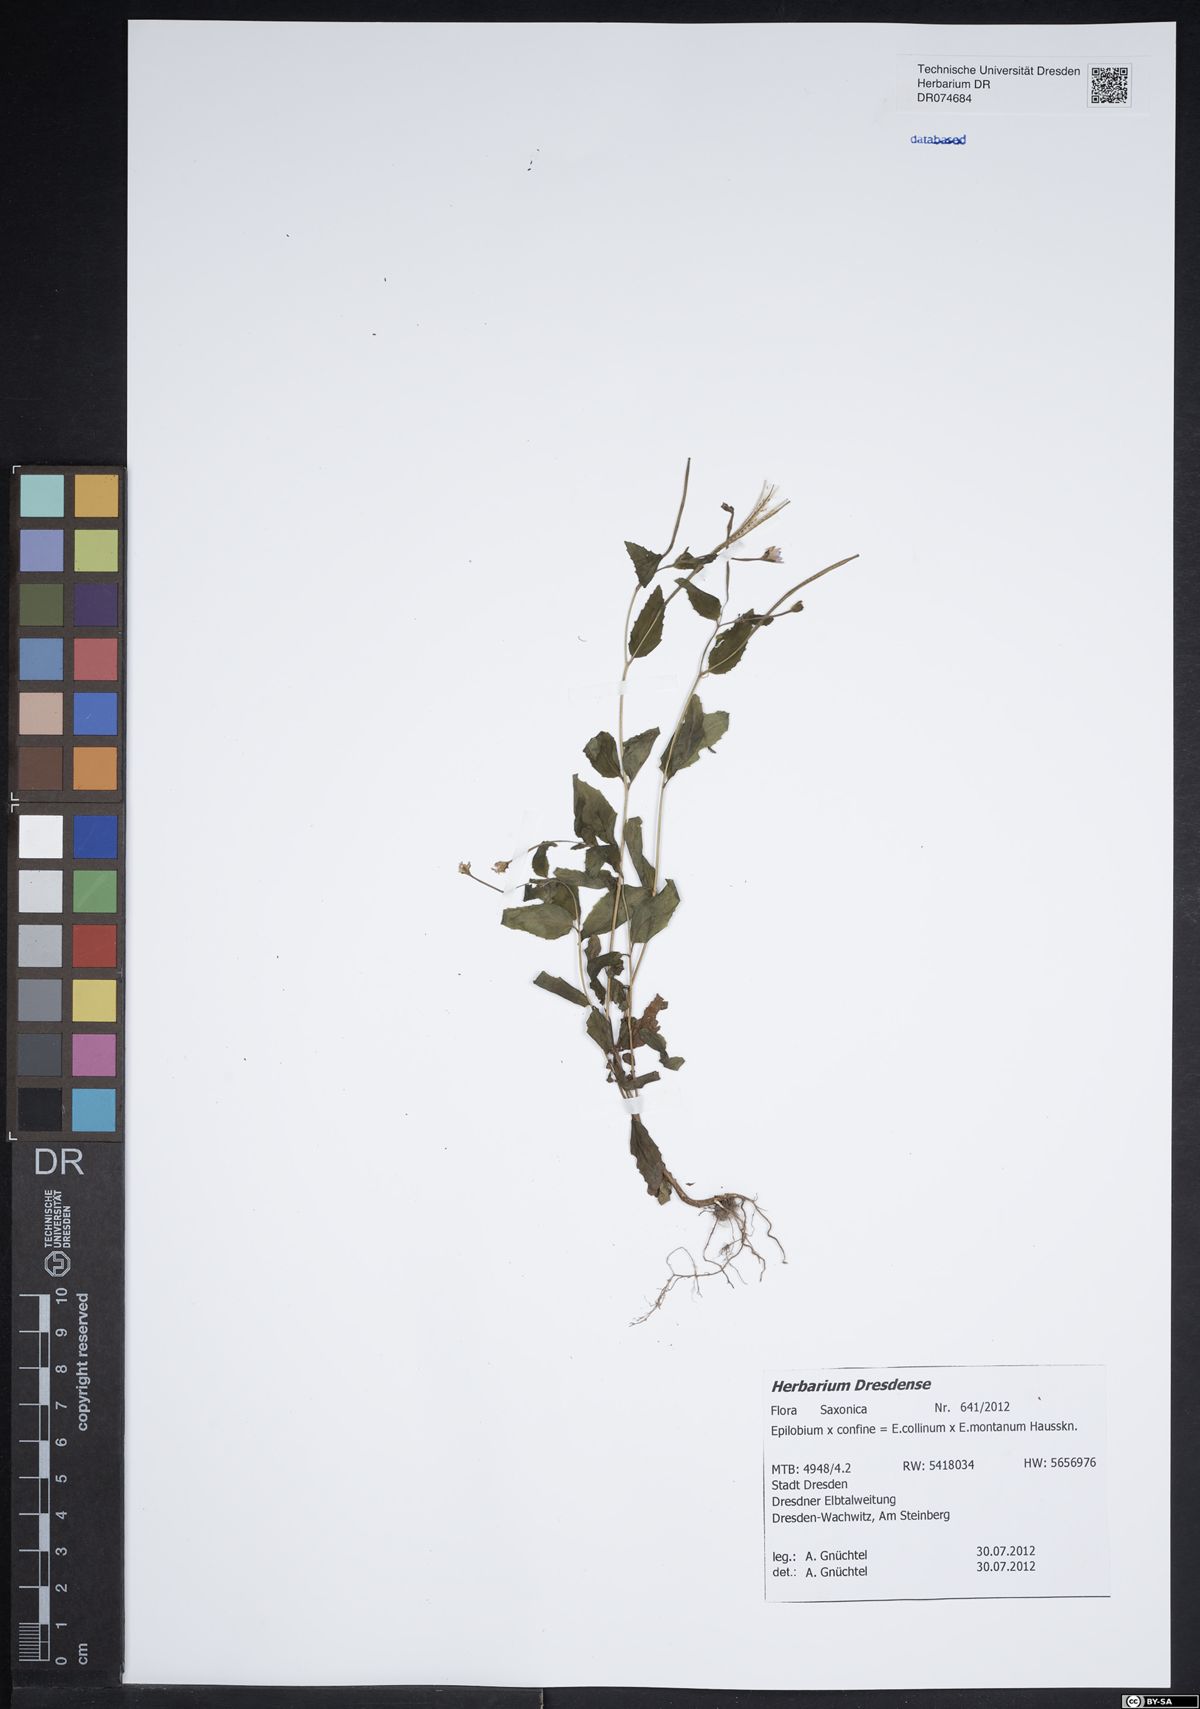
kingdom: Plantae
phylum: Tracheophyta
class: Magnoliopsida
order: Myrtales
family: Onagraceae
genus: Epilobium
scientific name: Epilobium confine
